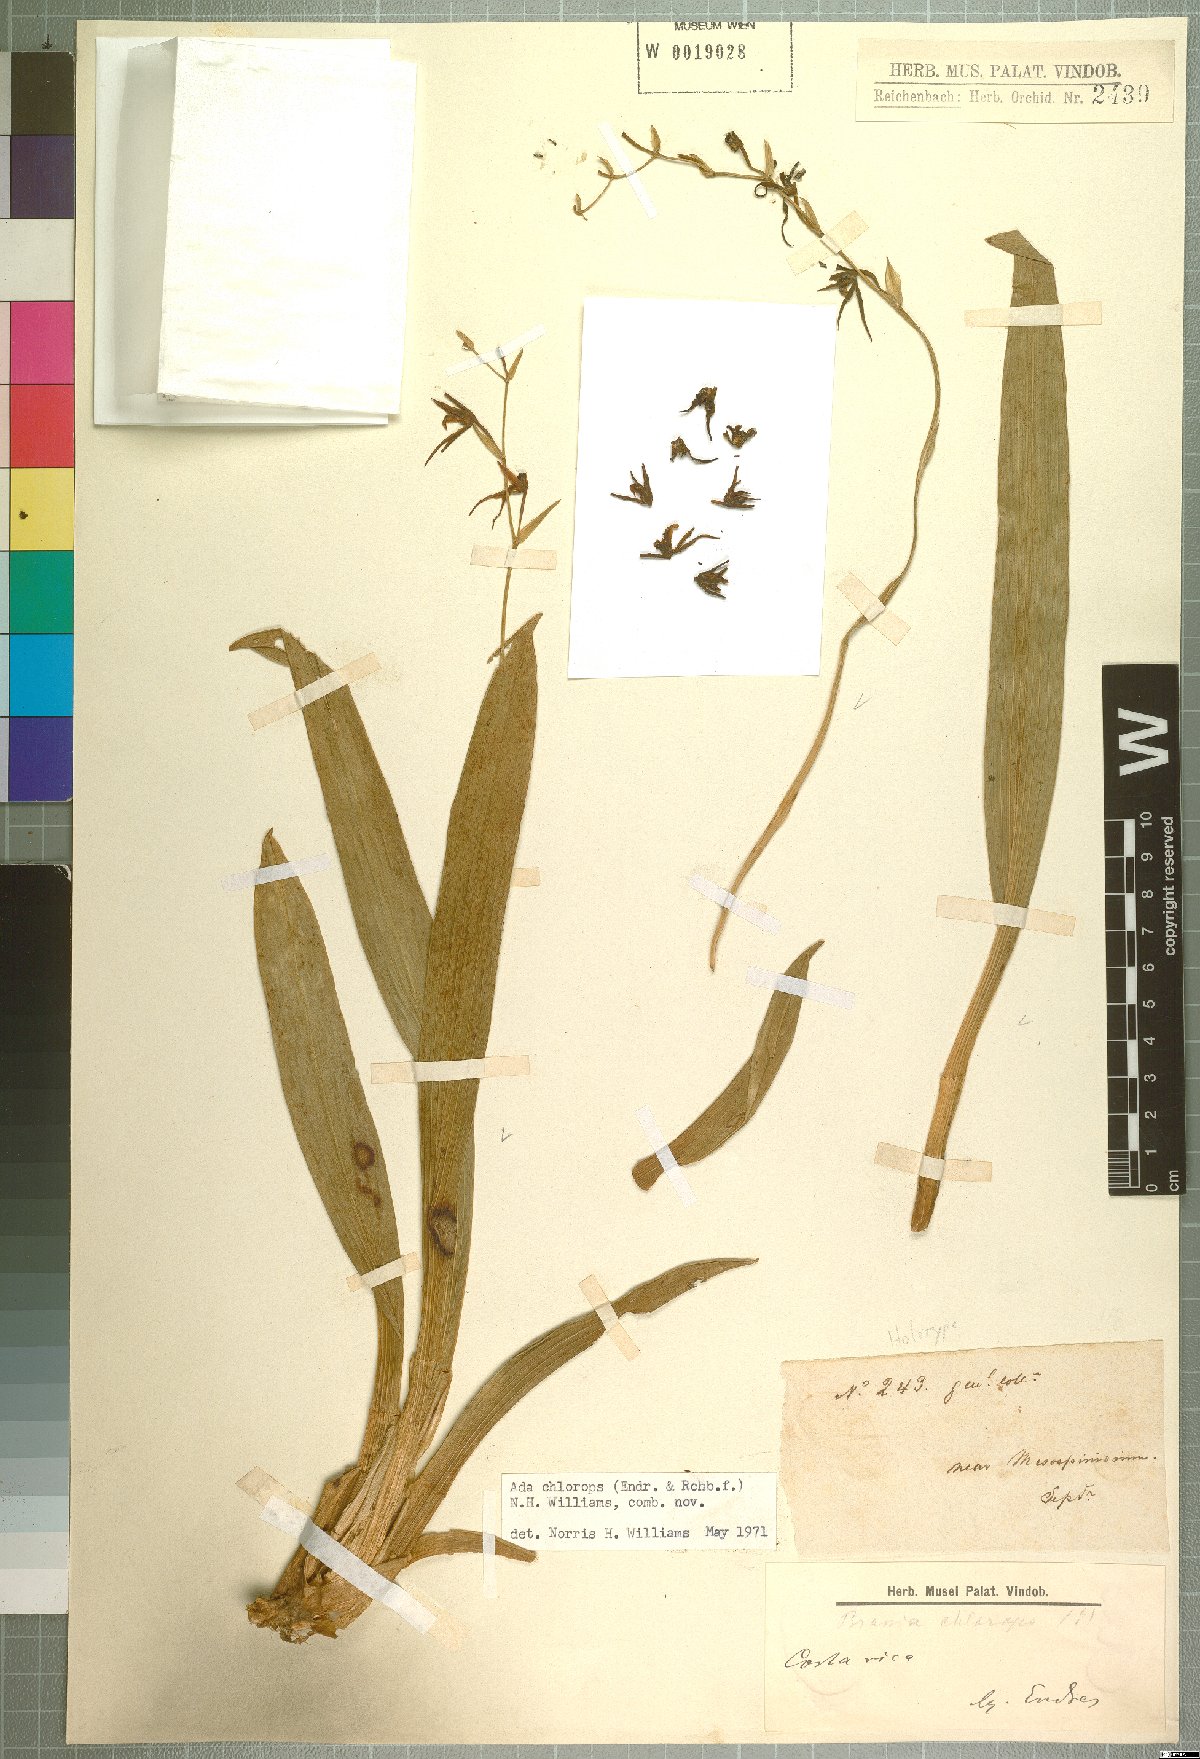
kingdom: Plantae
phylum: Tracheophyta
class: Liliopsida
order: Asparagales
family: Orchidaceae
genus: Brassia
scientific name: Brassia chlorops
